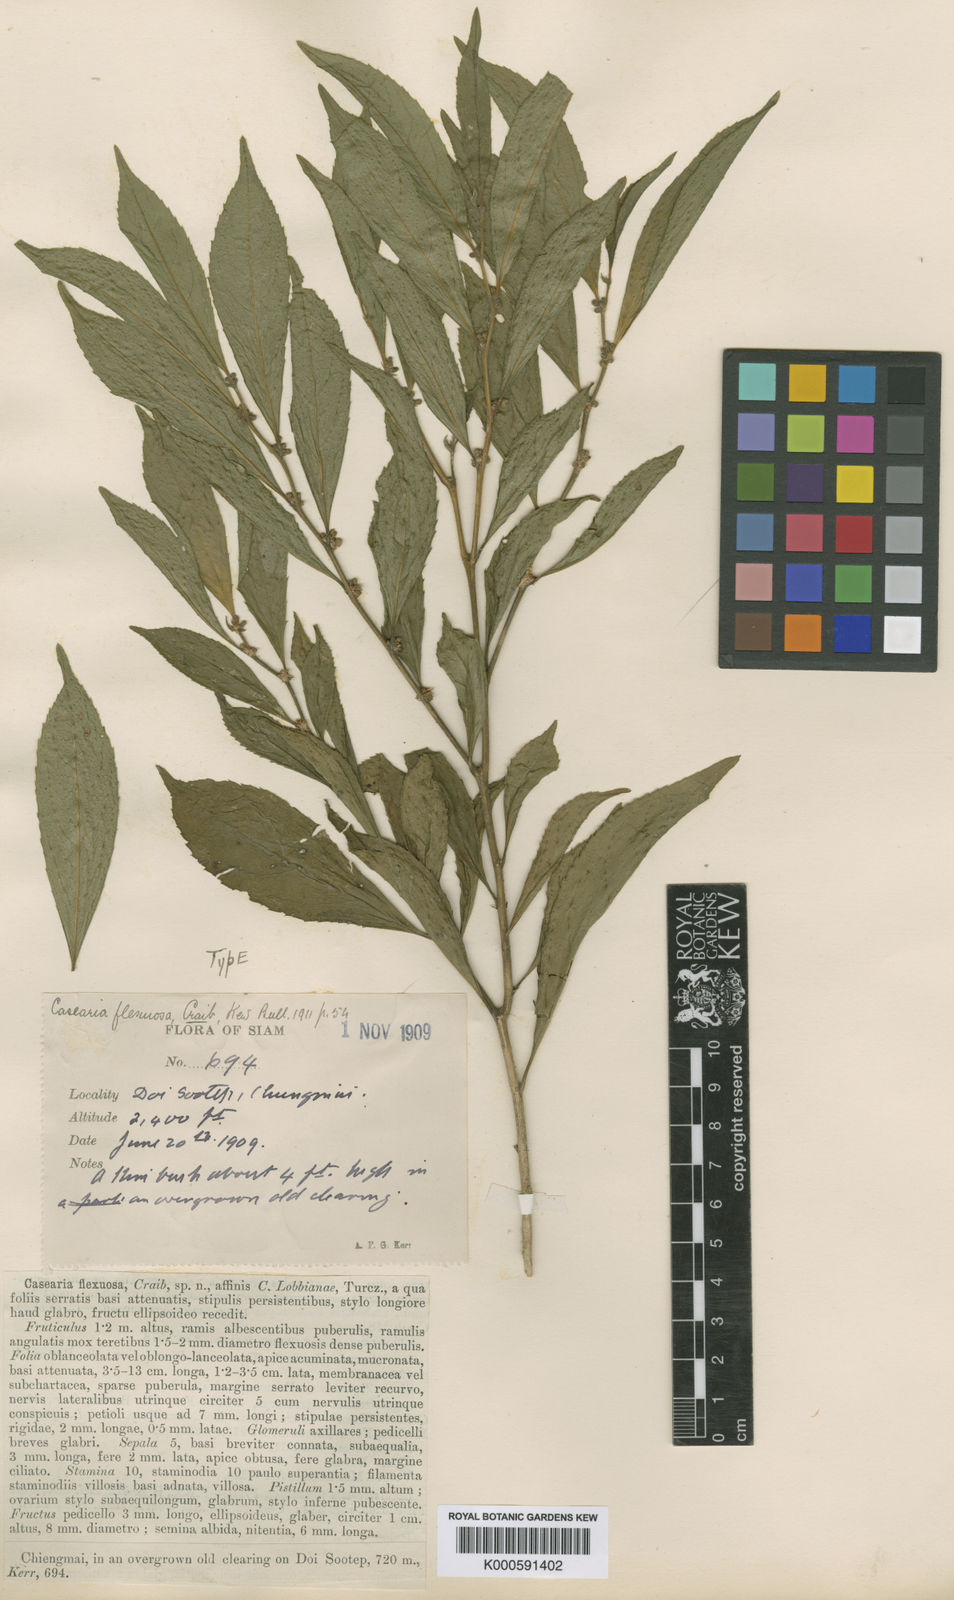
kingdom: Plantae
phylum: Tracheophyta
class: Magnoliopsida
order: Malpighiales
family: Salicaceae
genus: Casearia
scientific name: Casearia flexuosa
